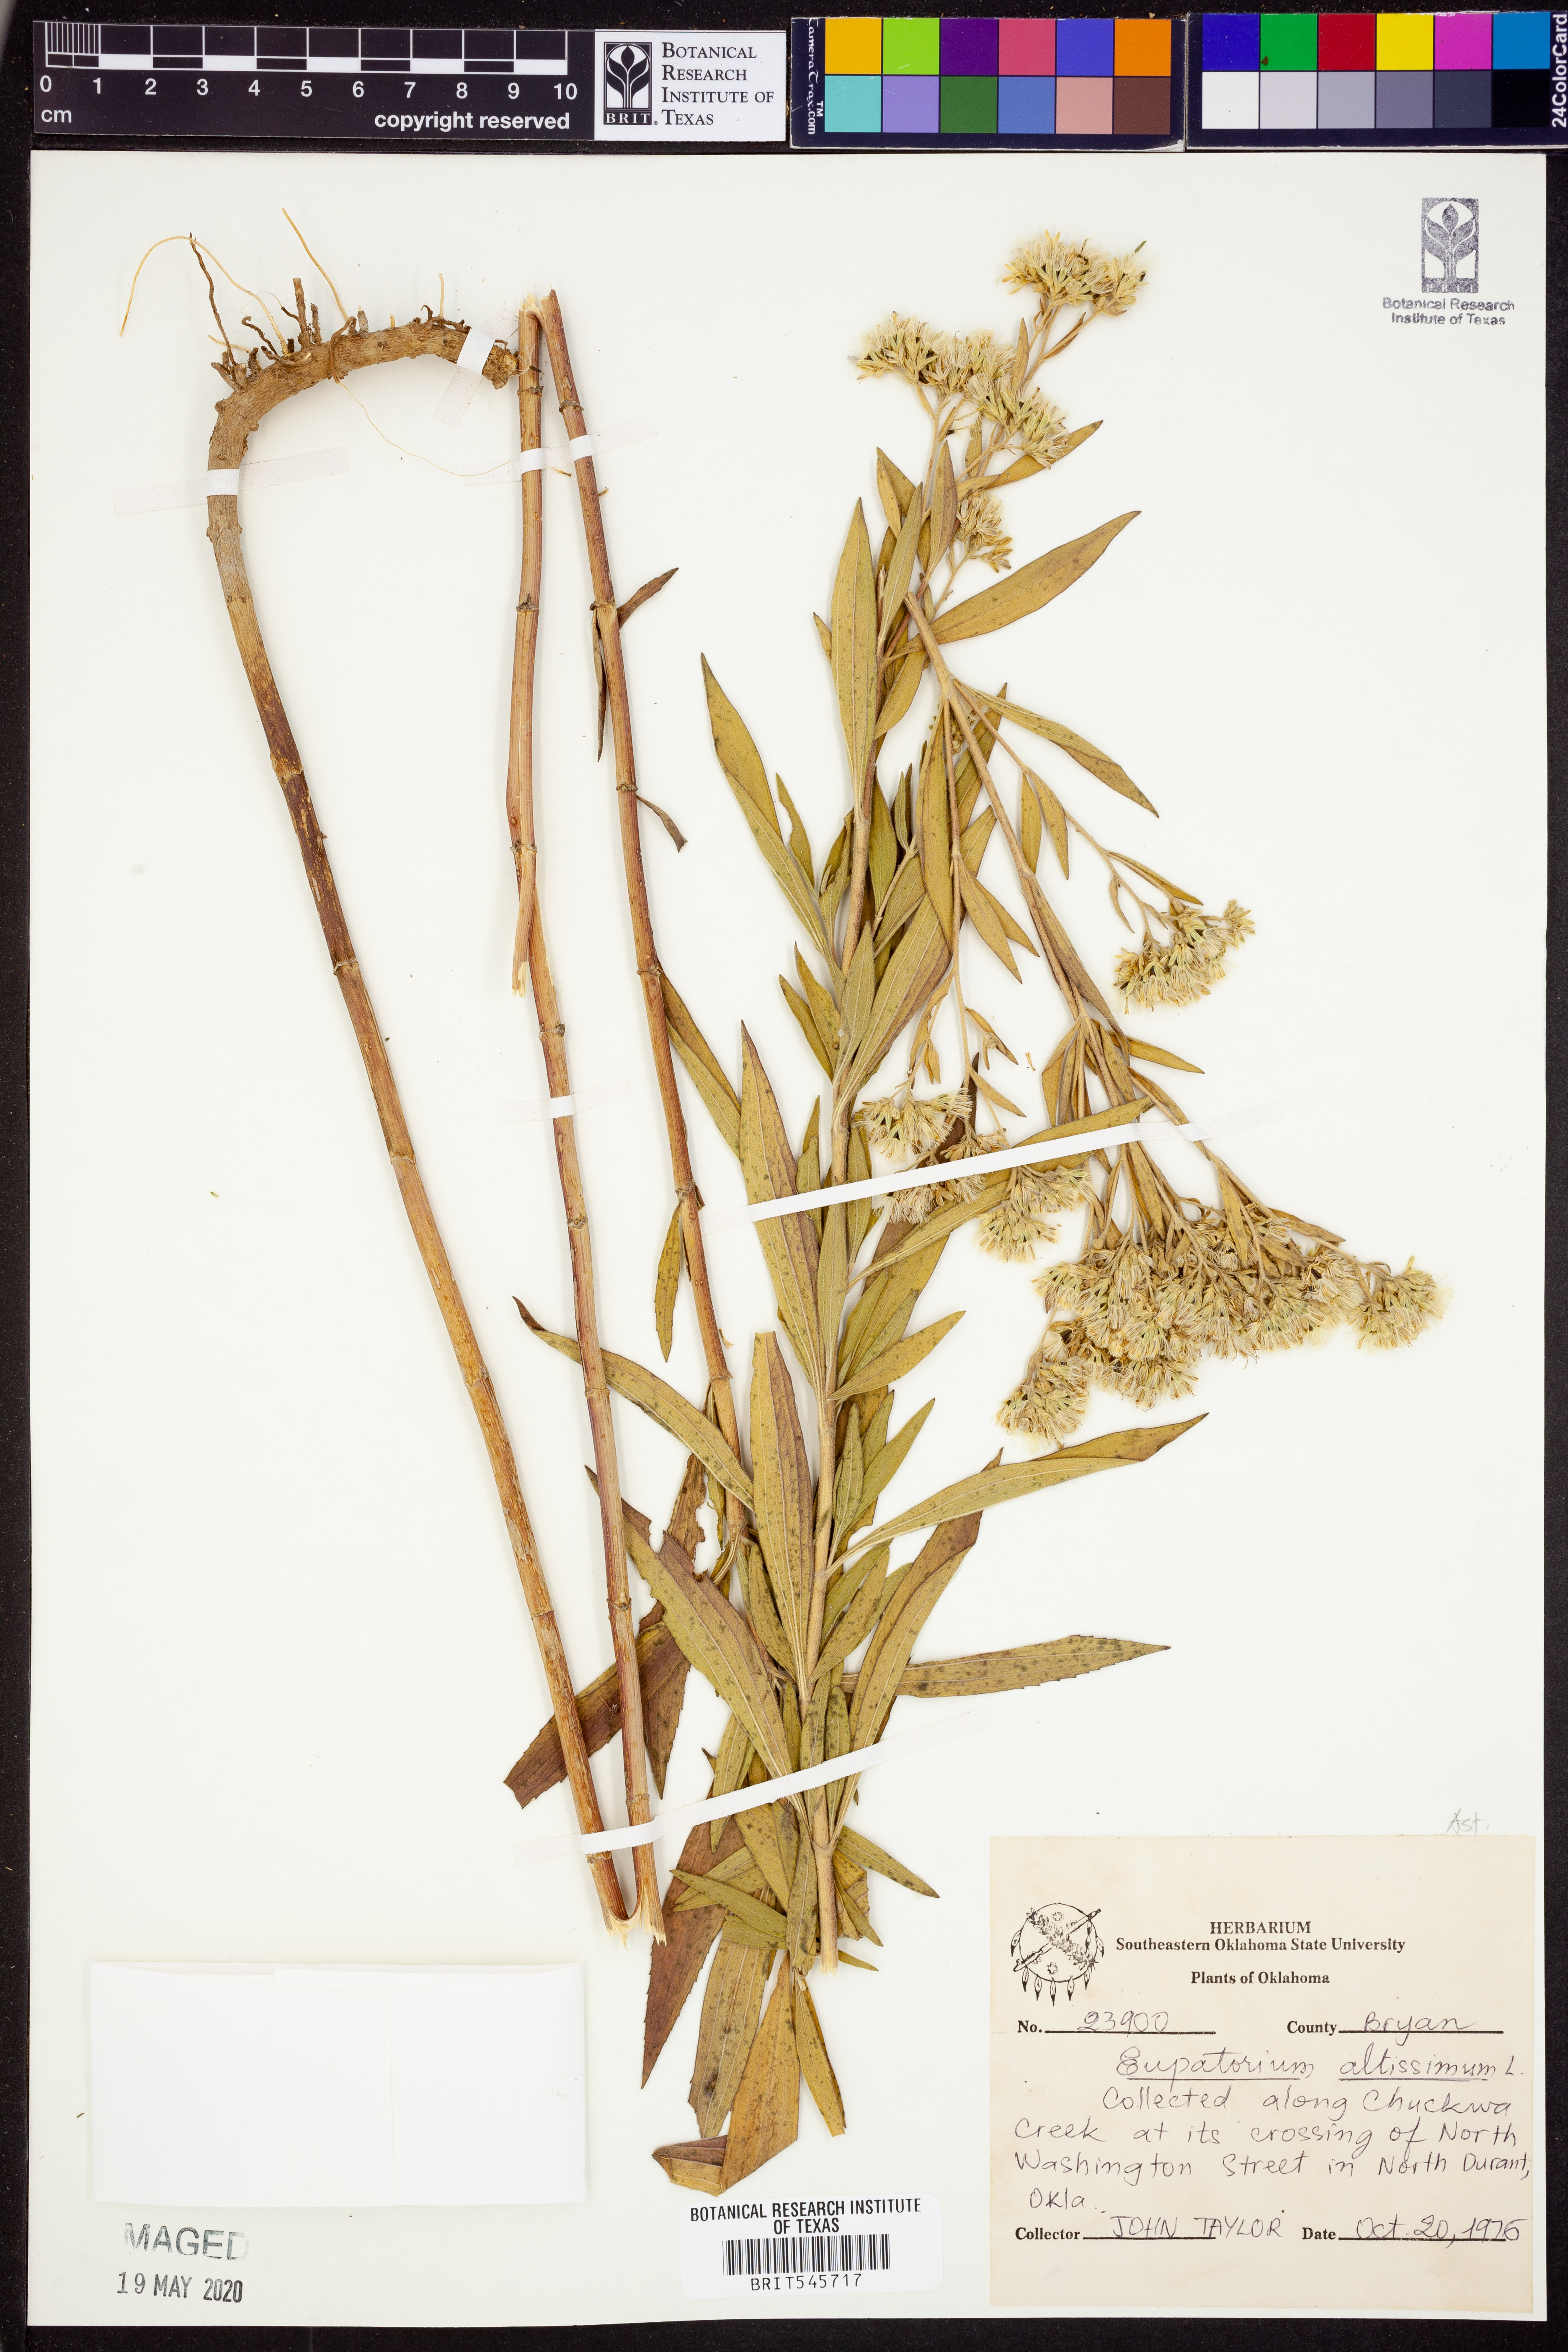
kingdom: Plantae
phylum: Tracheophyta
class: Magnoliopsida
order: Asterales
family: Asteraceae
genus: Eupatorium
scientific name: Eupatorium altissimum
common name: Tall thoroughwort
